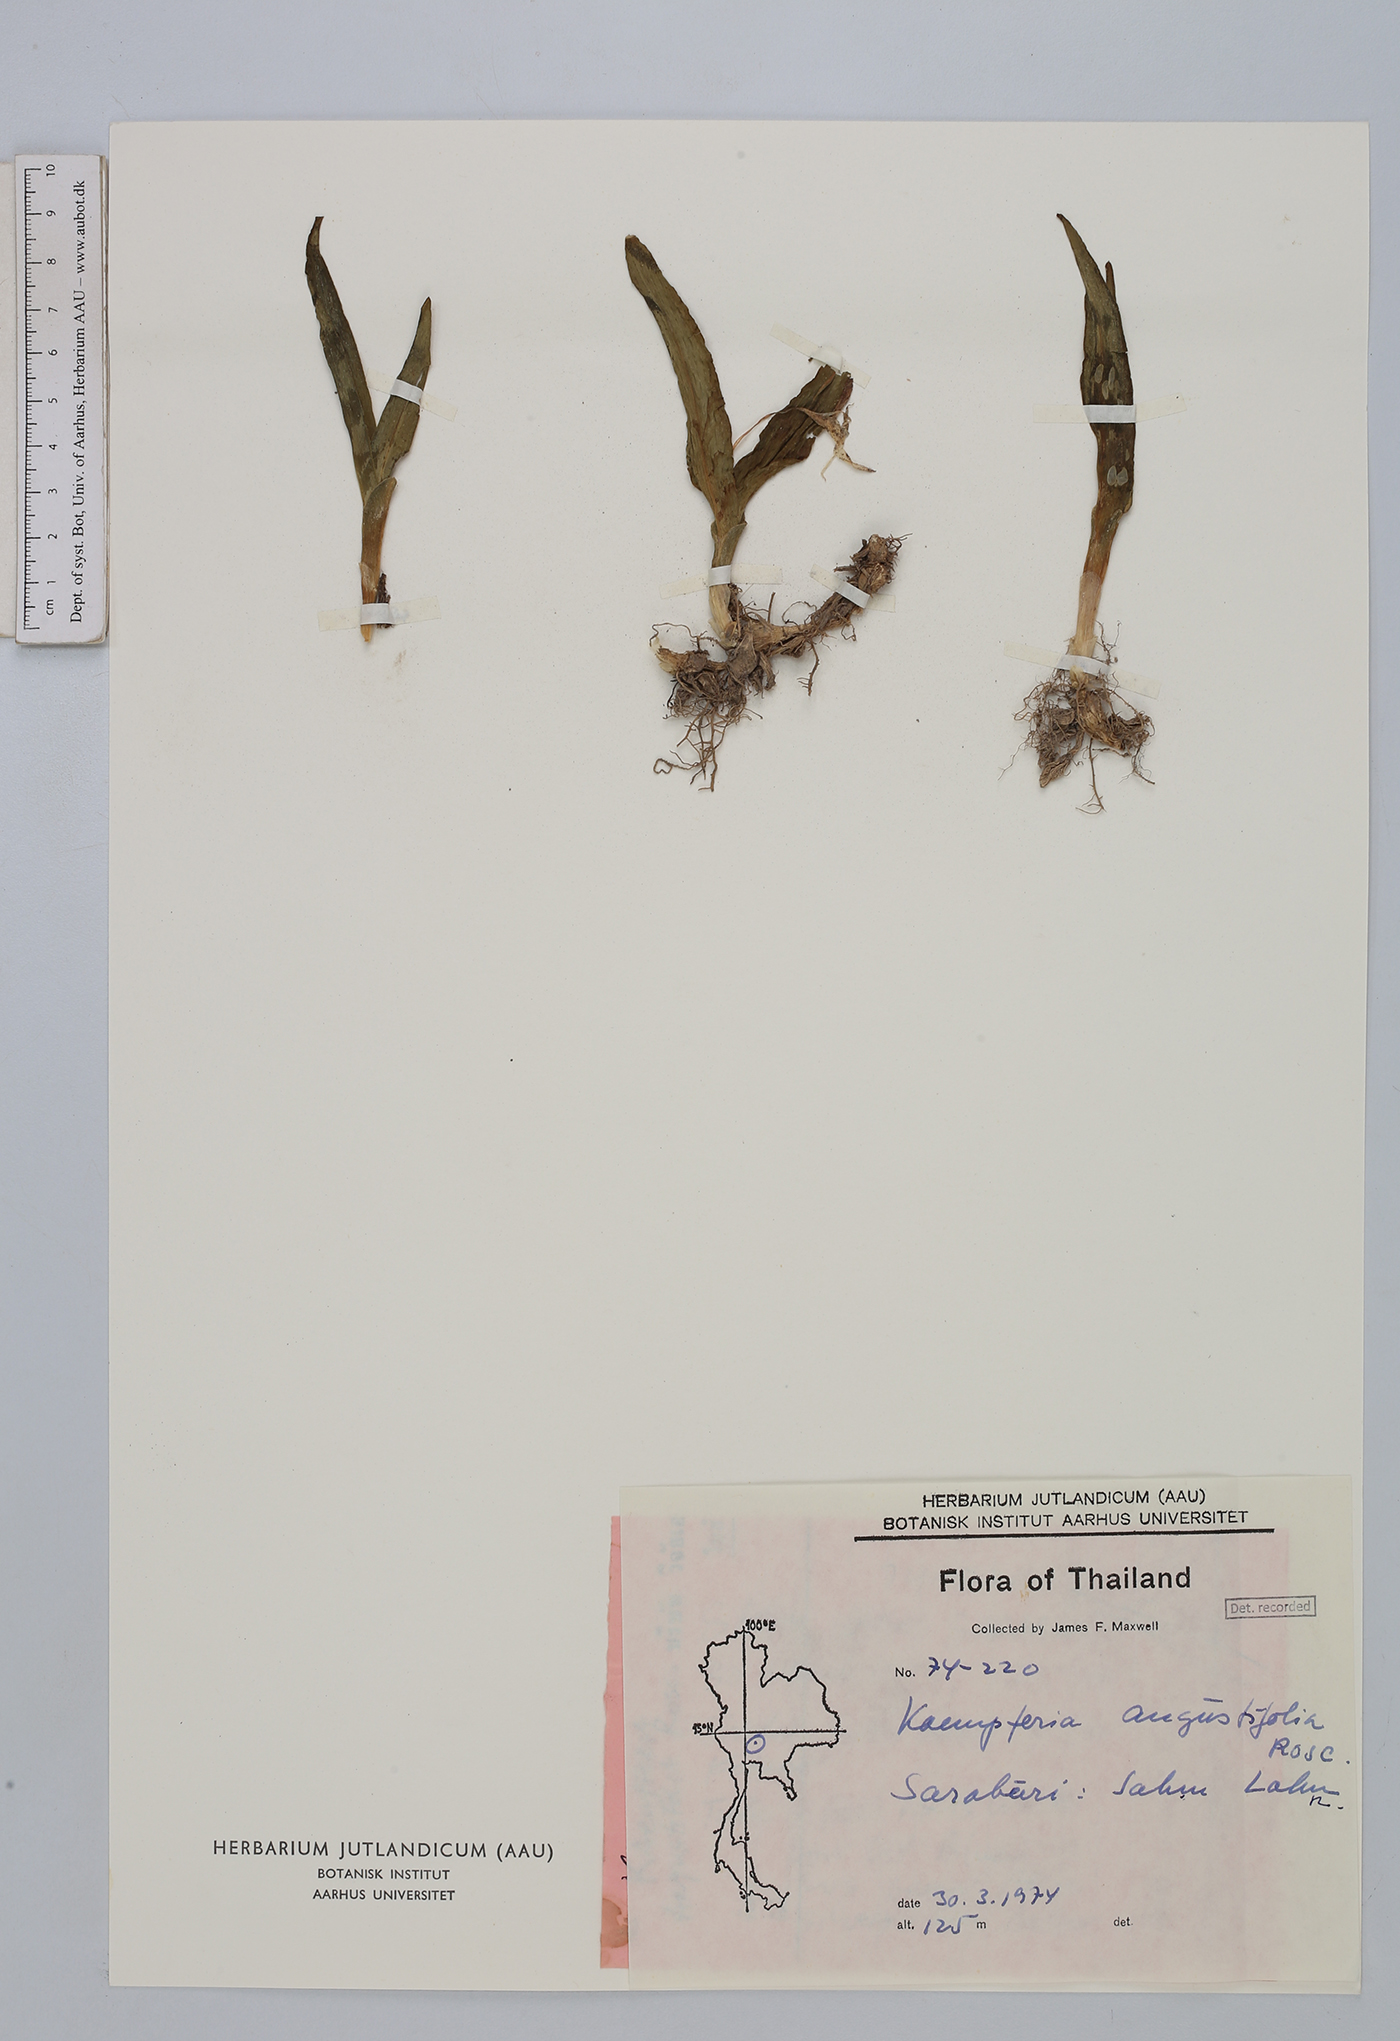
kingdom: Plantae
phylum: Tracheophyta
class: Liliopsida
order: Zingiberales
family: Zingiberaceae
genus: Kaempferia
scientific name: Kaempferia angustifolia
